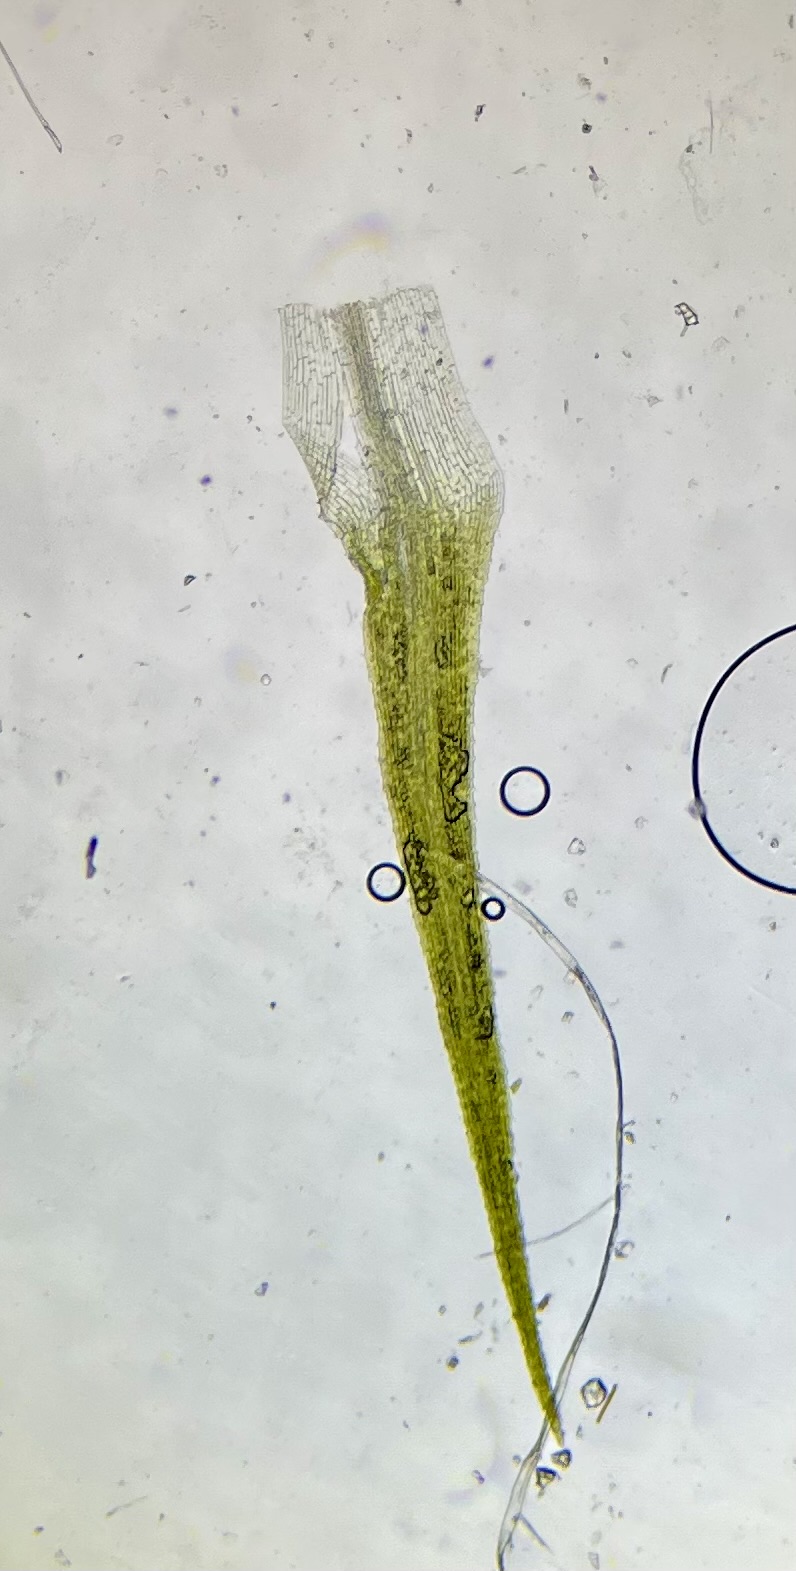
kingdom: Plantae
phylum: Bryophyta
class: Bryopsida
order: Bartramiales
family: Bartramiaceae
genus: Bartramia
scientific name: Bartramia ithyphylla
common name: Blågrøn kuglekapsel
